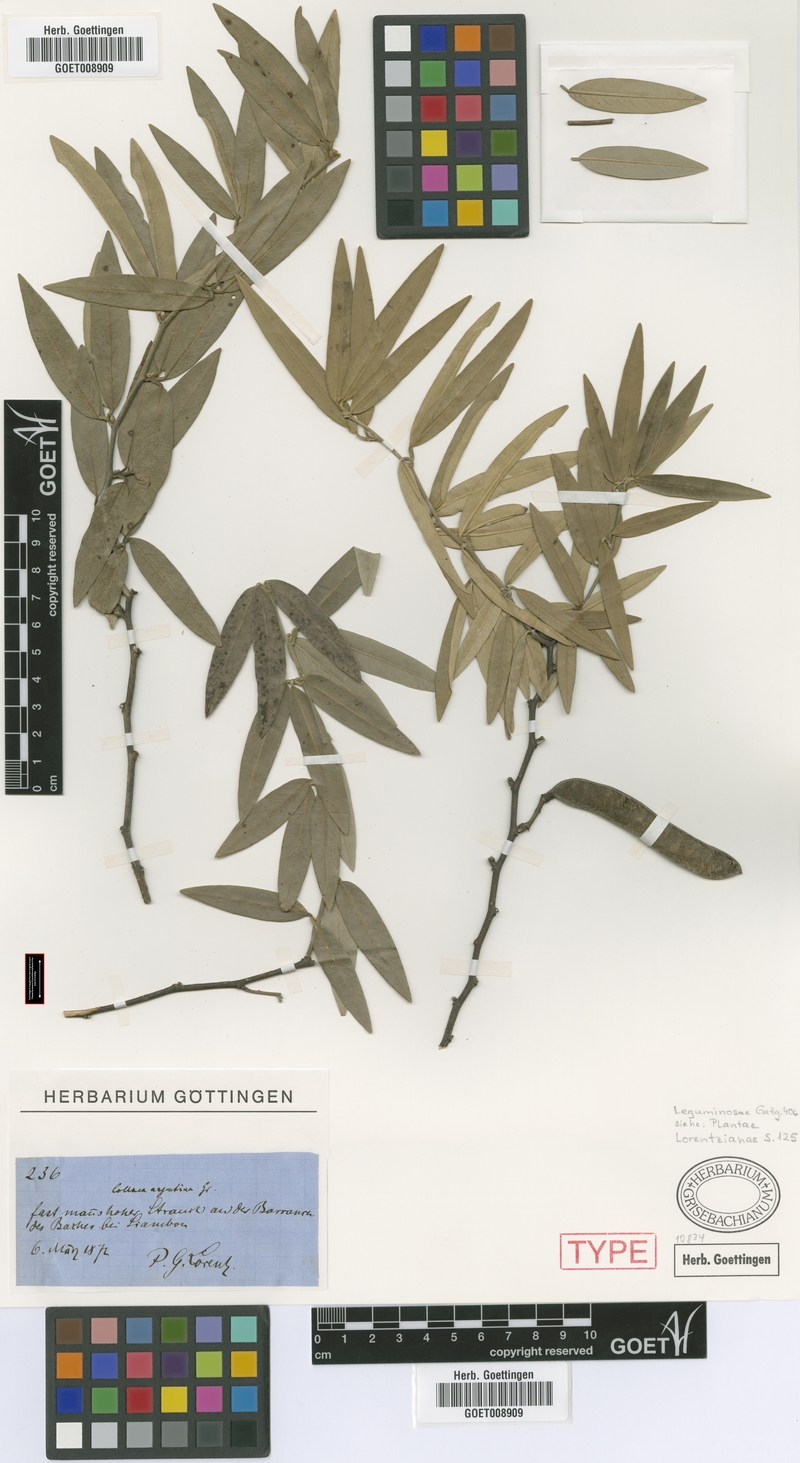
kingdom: Plantae
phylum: Tracheophyta
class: Magnoliopsida
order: Fabales
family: Fabaceae
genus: Nanogalactia
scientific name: Nanogalactia heterophylla
